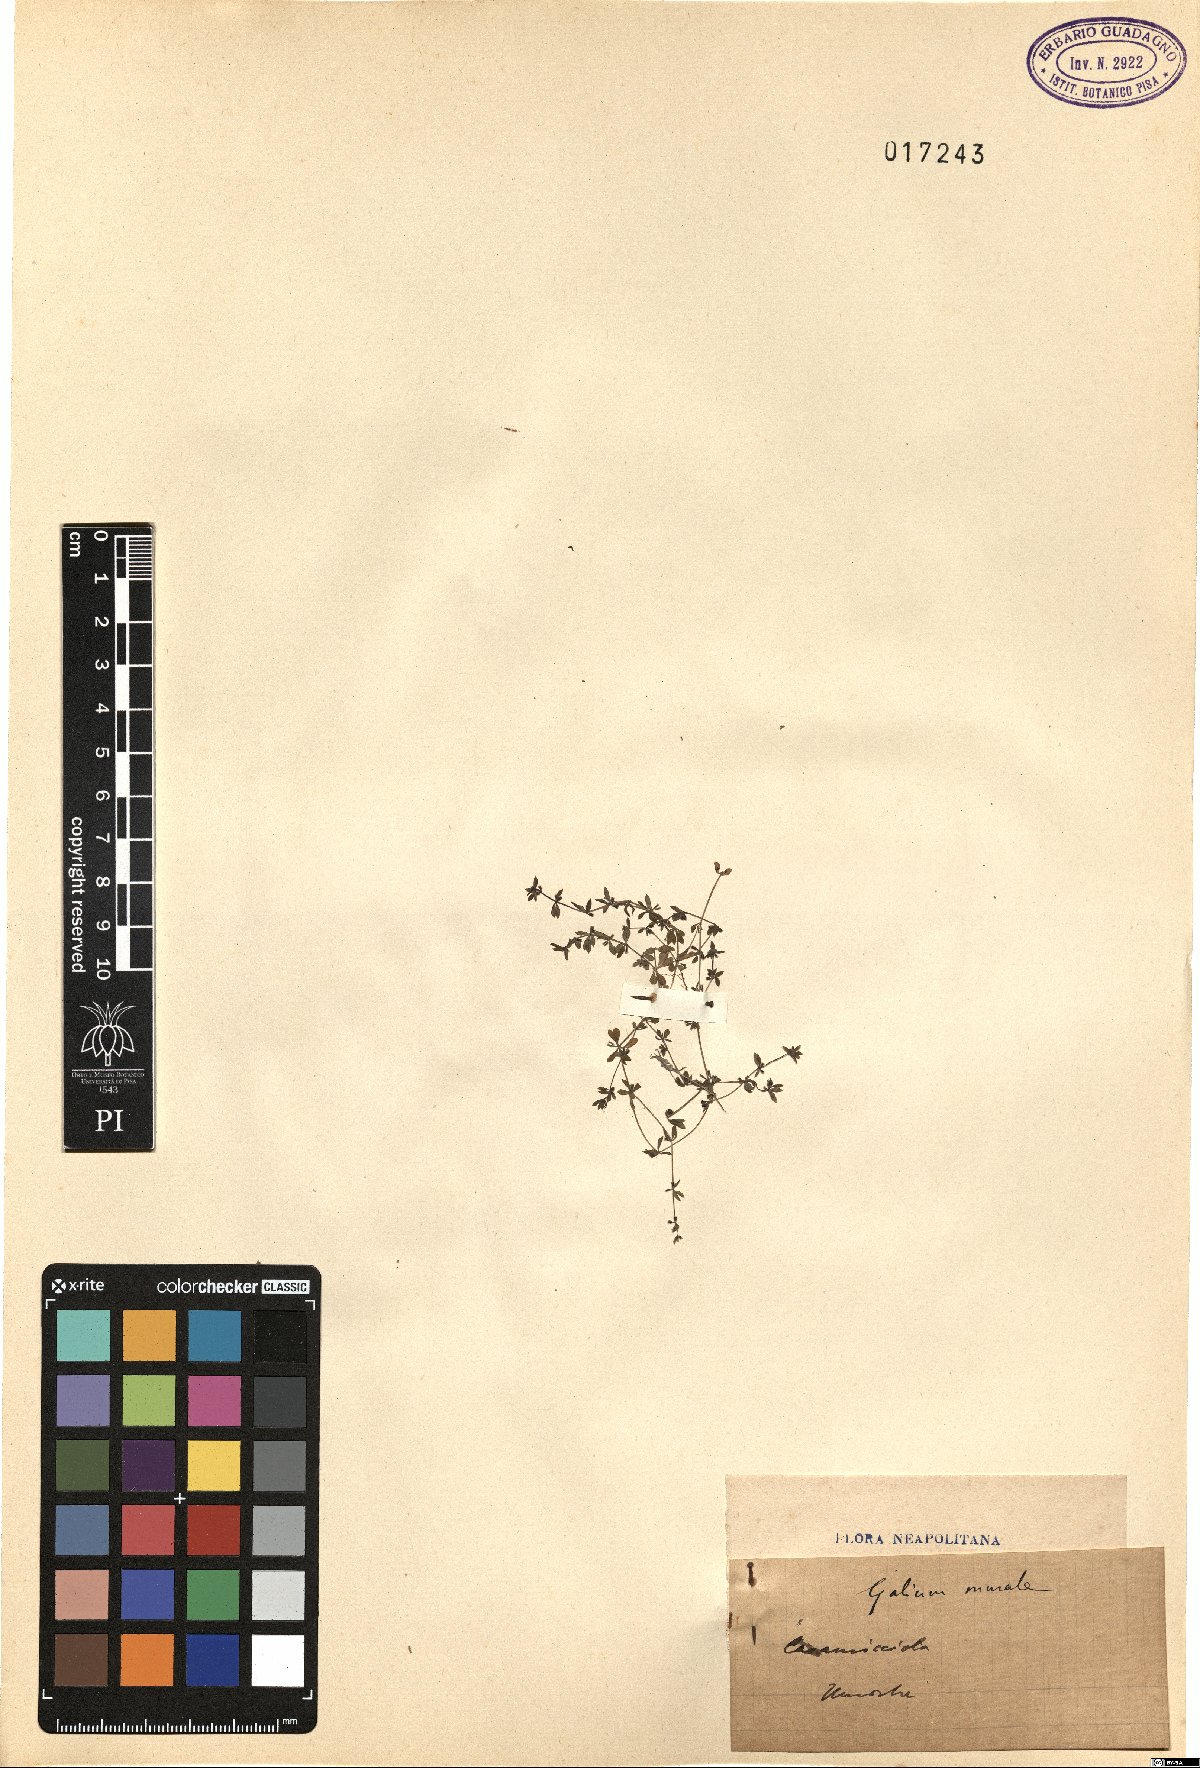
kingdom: Plantae
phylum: Tracheophyta
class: Magnoliopsida
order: Gentianales
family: Rubiaceae
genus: Galium
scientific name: Galium murale
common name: Yellow wall bedstraw
